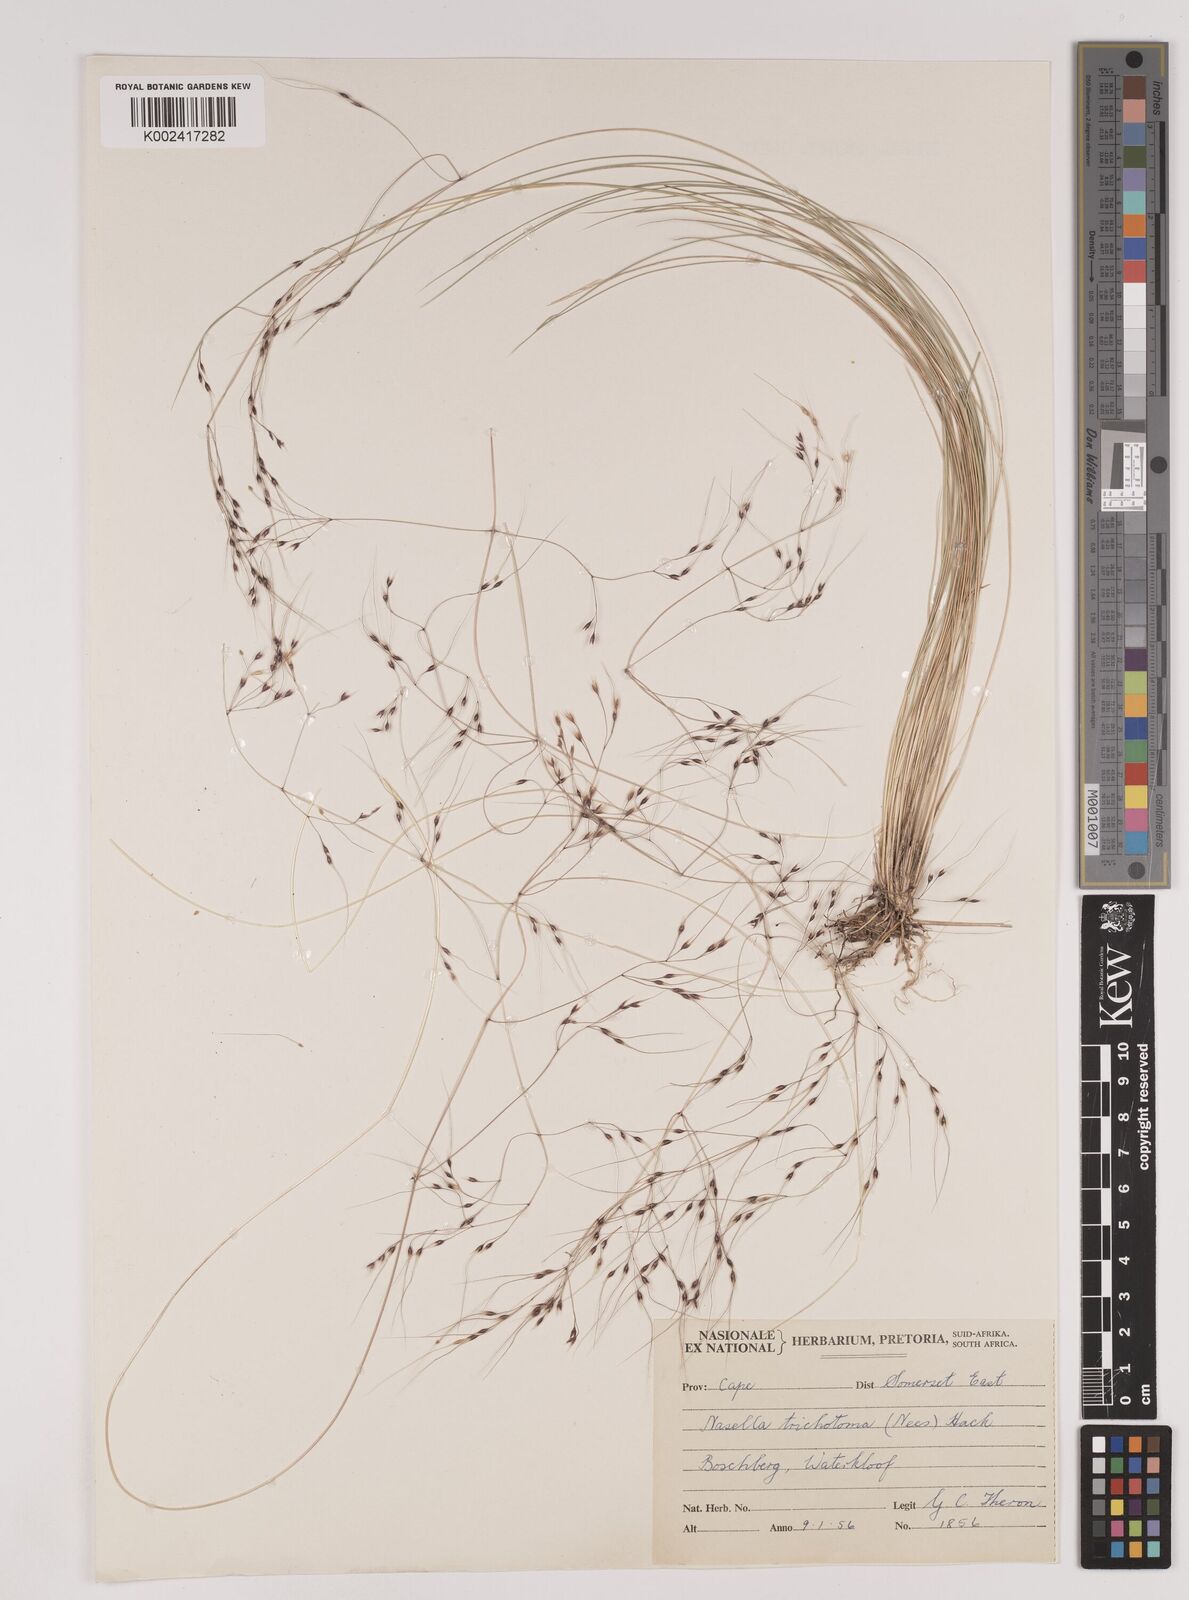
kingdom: Plantae
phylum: Tracheophyta
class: Liliopsida
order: Poales
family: Poaceae
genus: Nassella
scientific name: Nassella trichotoma
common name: Serrated tussock grass
